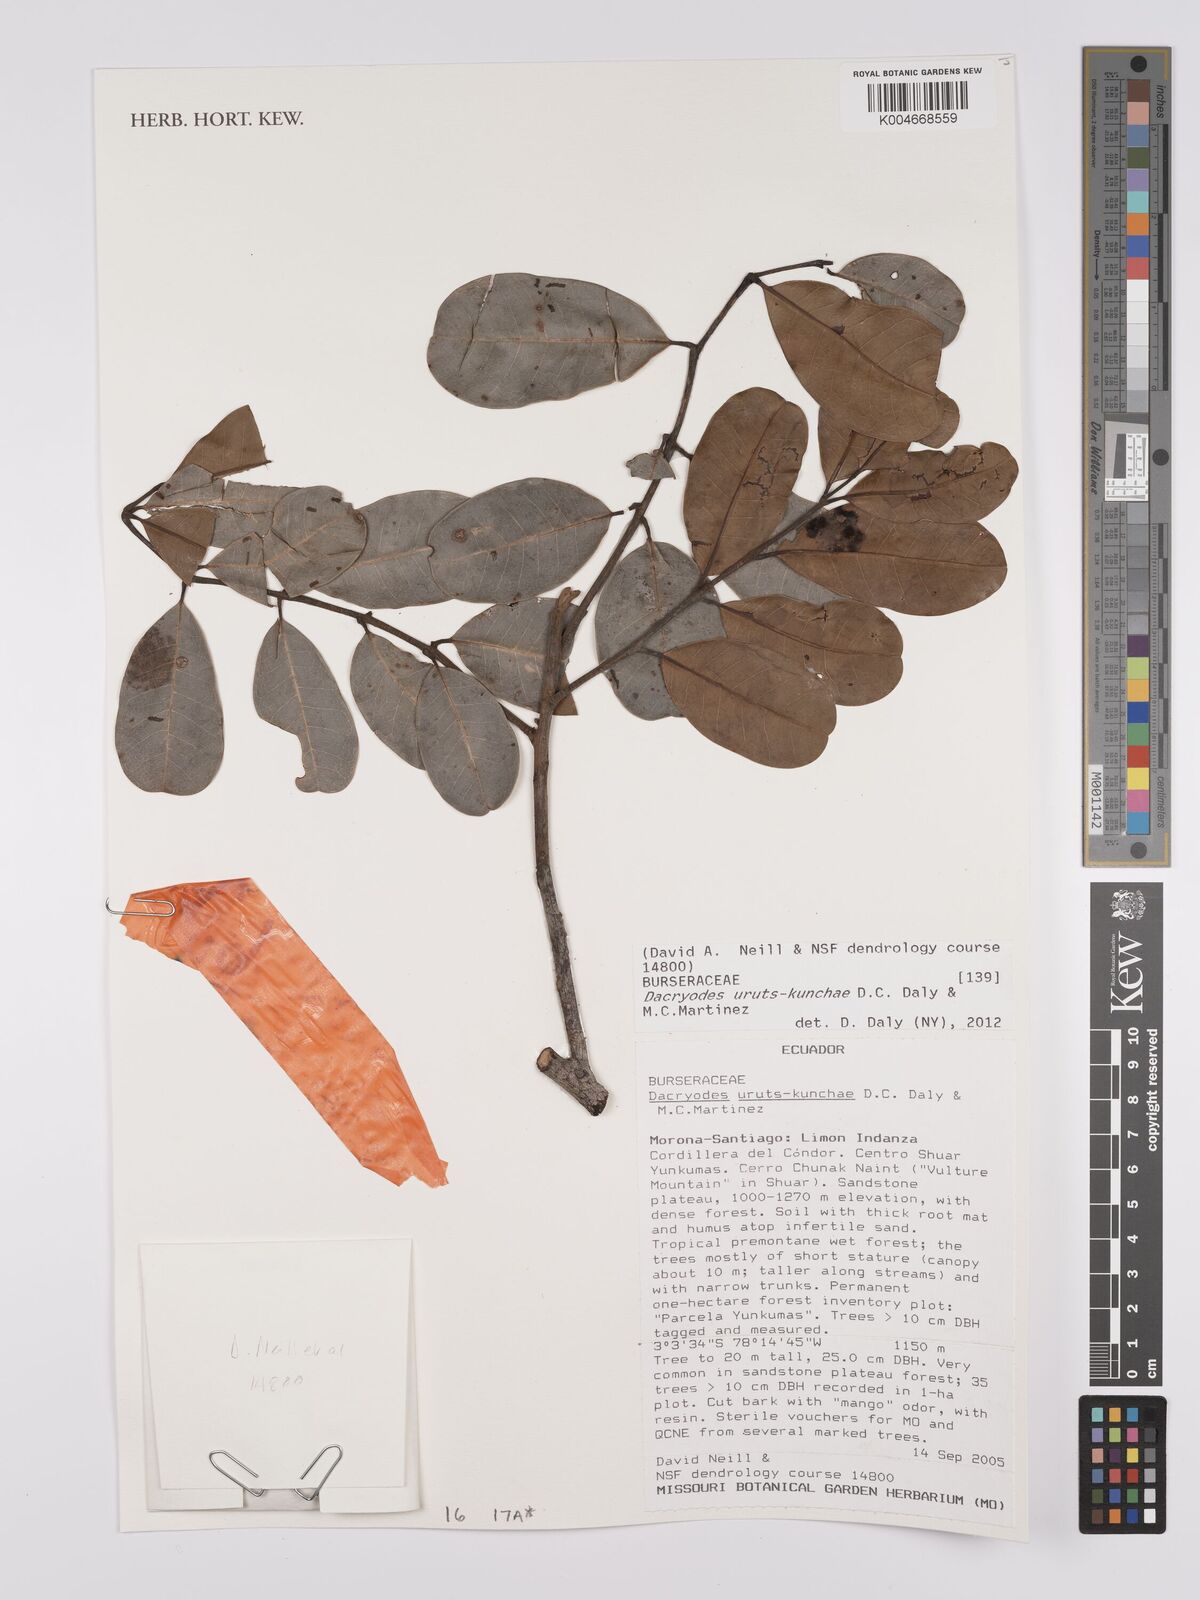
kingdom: Plantae
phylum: Tracheophyta
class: Magnoliopsida
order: Sapindales
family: Burseraceae
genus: Dacryodes
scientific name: Dacryodes uruts-kunchae
